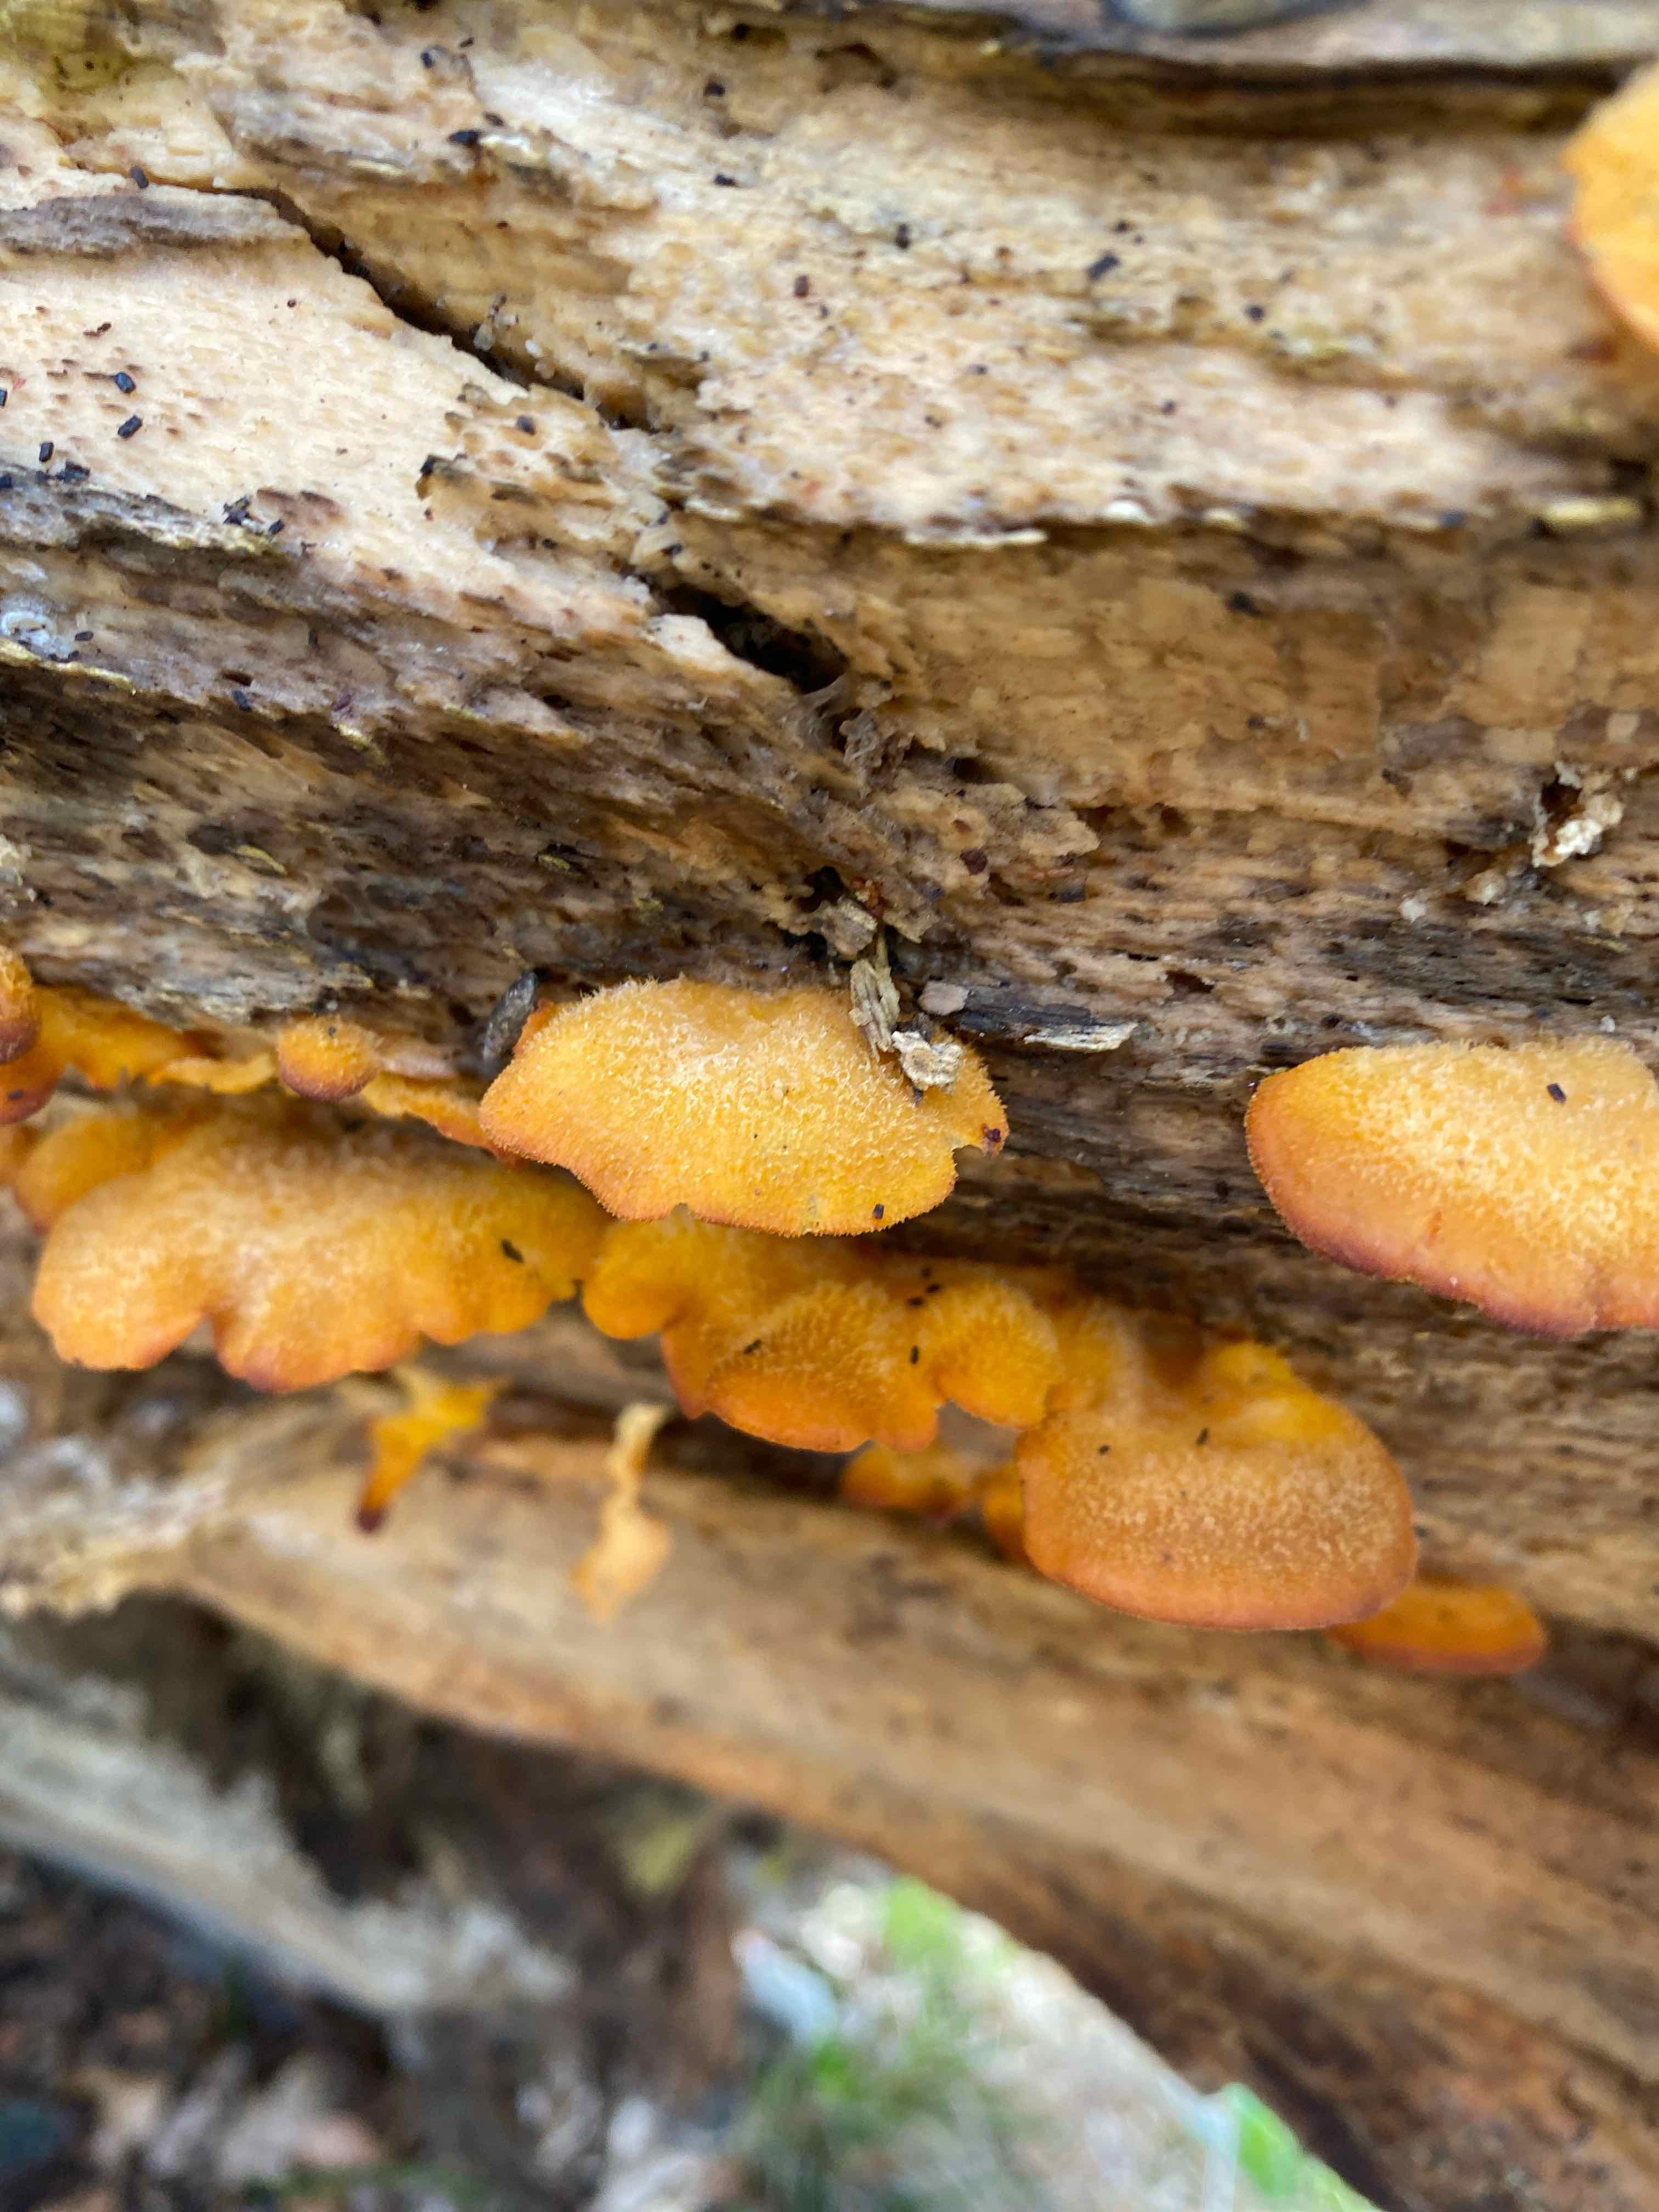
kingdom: Fungi
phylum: Basidiomycota
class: Agaricomycetes
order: Agaricales
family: Phyllotopsidaceae
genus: Phyllotopsis
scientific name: Phyllotopsis nidulans
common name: okkerblad
